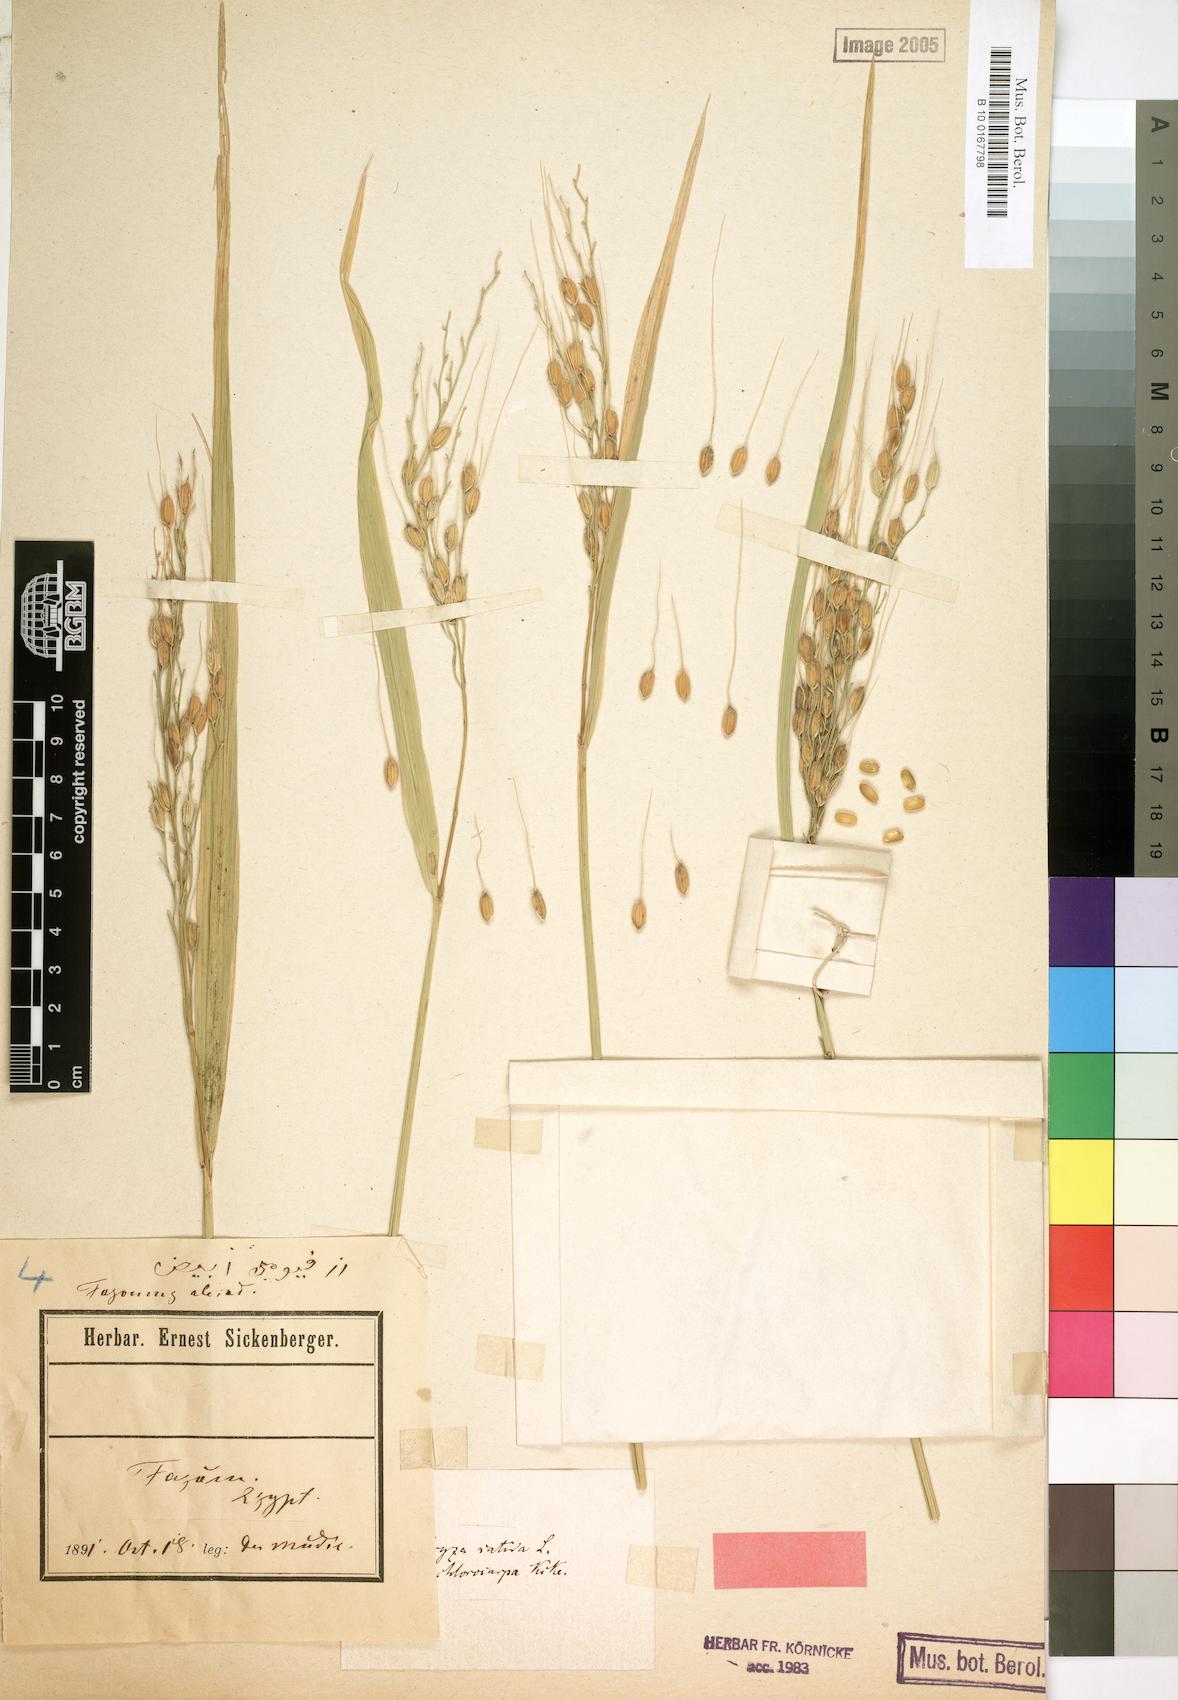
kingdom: Plantae
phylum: Tracheophyta
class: Liliopsida
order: Poales
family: Poaceae
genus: Oryza
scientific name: Oryza sativa
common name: Rice
